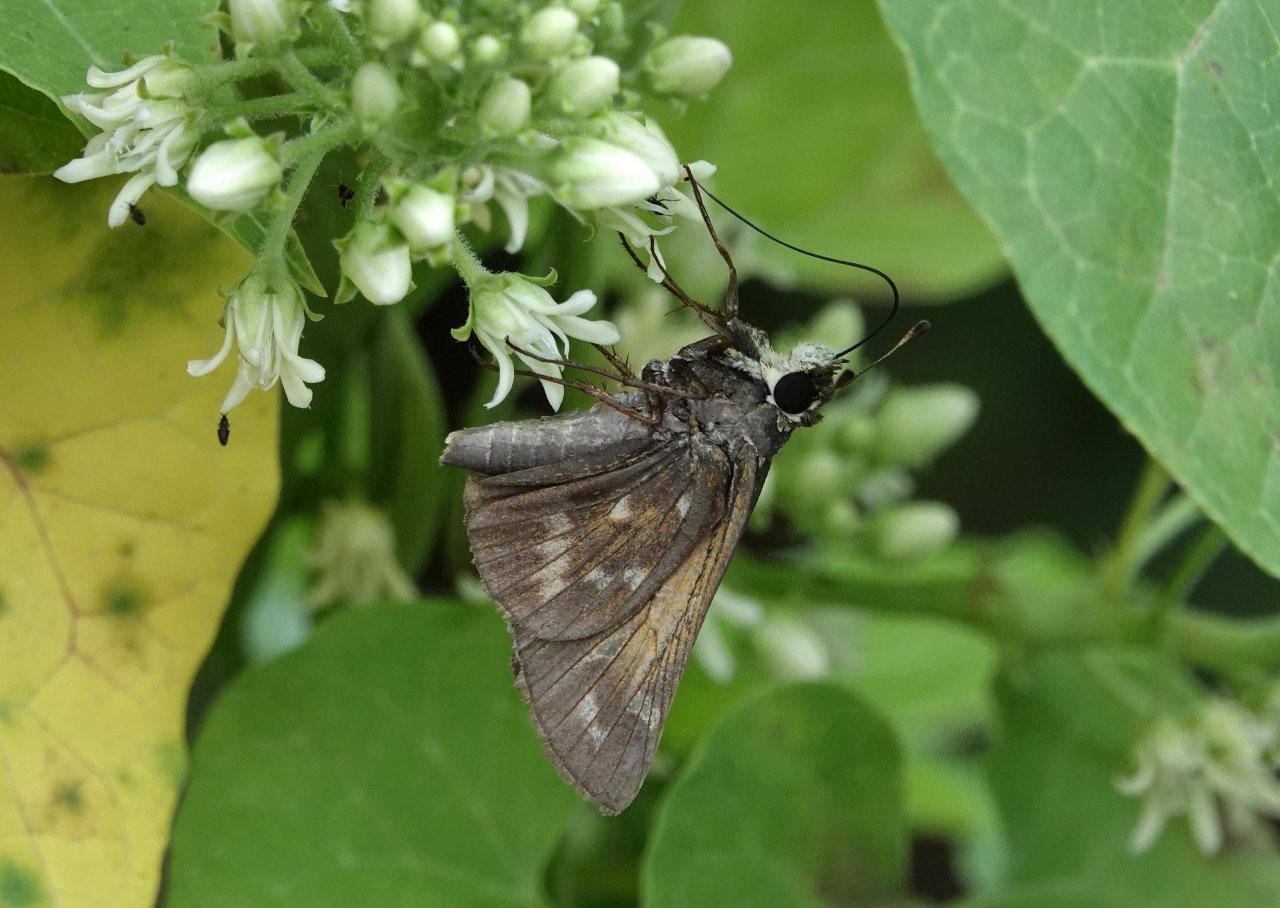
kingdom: Animalia
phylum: Arthropoda
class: Insecta
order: Lepidoptera
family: Hesperiidae
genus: Atalopedes
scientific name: Atalopedes campestris
